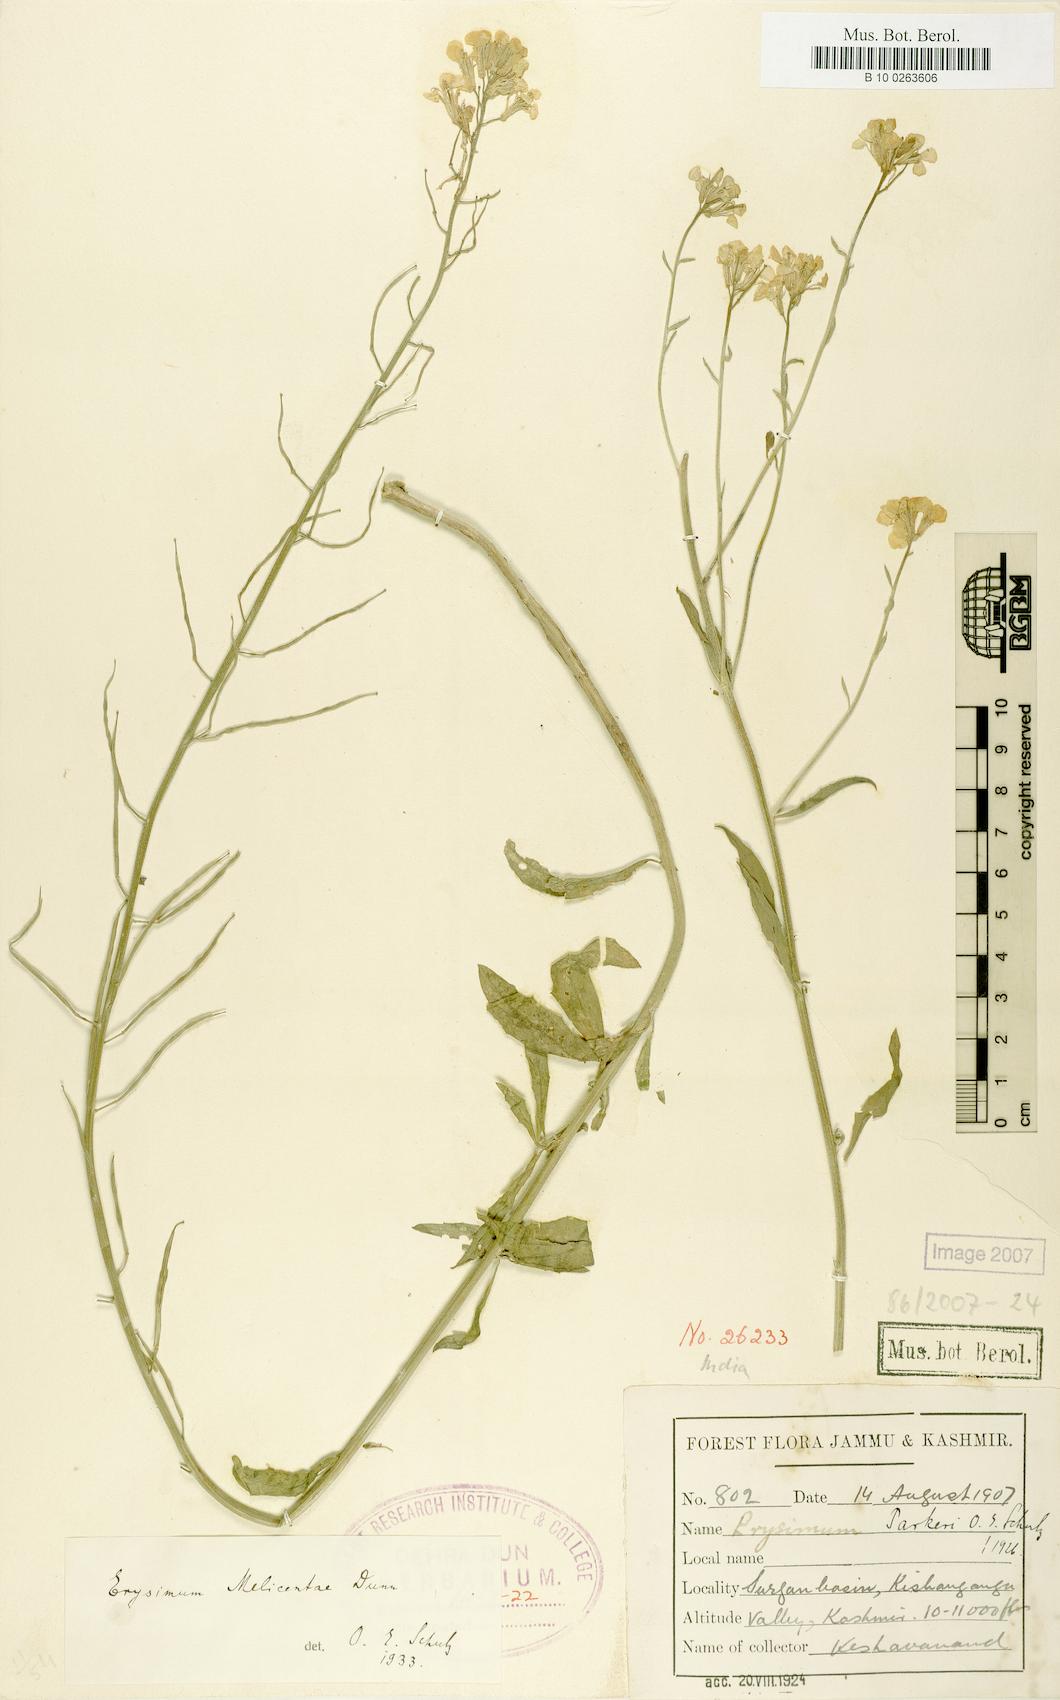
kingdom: Plantae
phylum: Tracheophyta
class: Magnoliopsida
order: Brassicales
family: Brassicaceae
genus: Erysimum
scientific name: Erysimum melicentae
